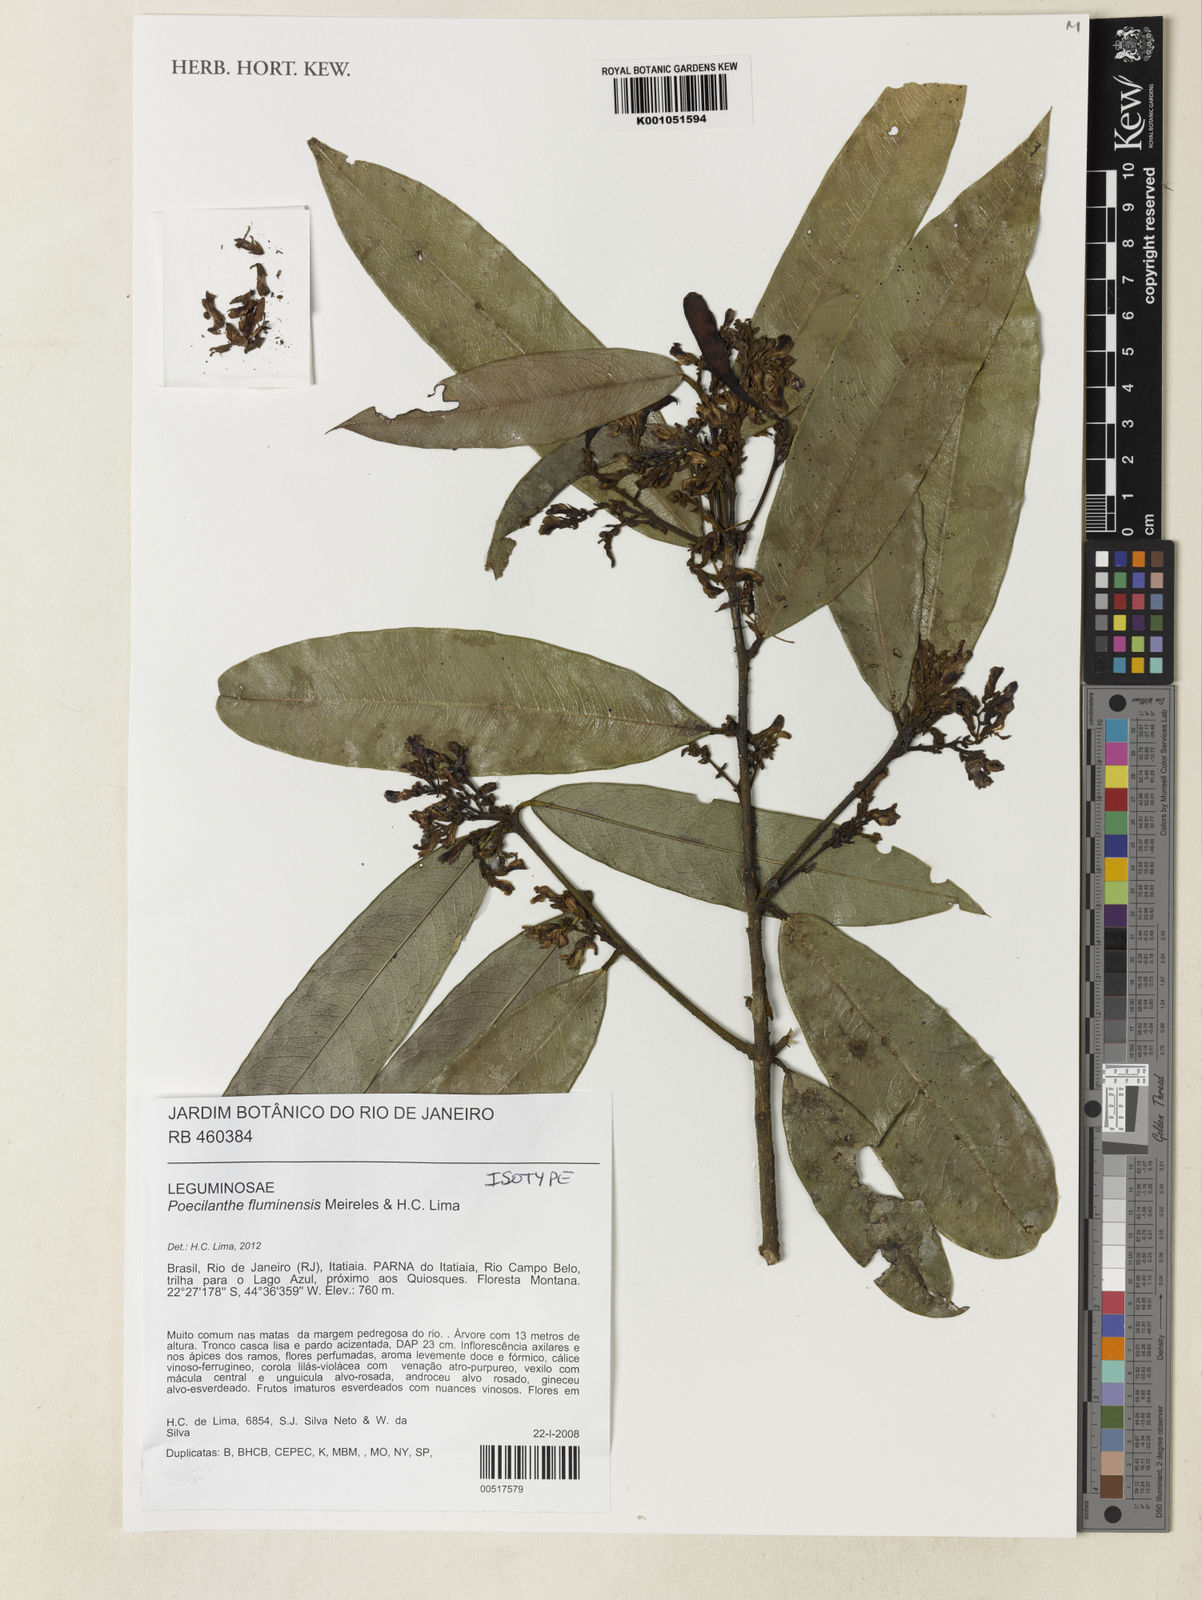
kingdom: Plantae
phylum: Tracheophyta
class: Magnoliopsida
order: Fabales
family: Fabaceae
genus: Poecilanthe
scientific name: Poecilanthe fluminensis
